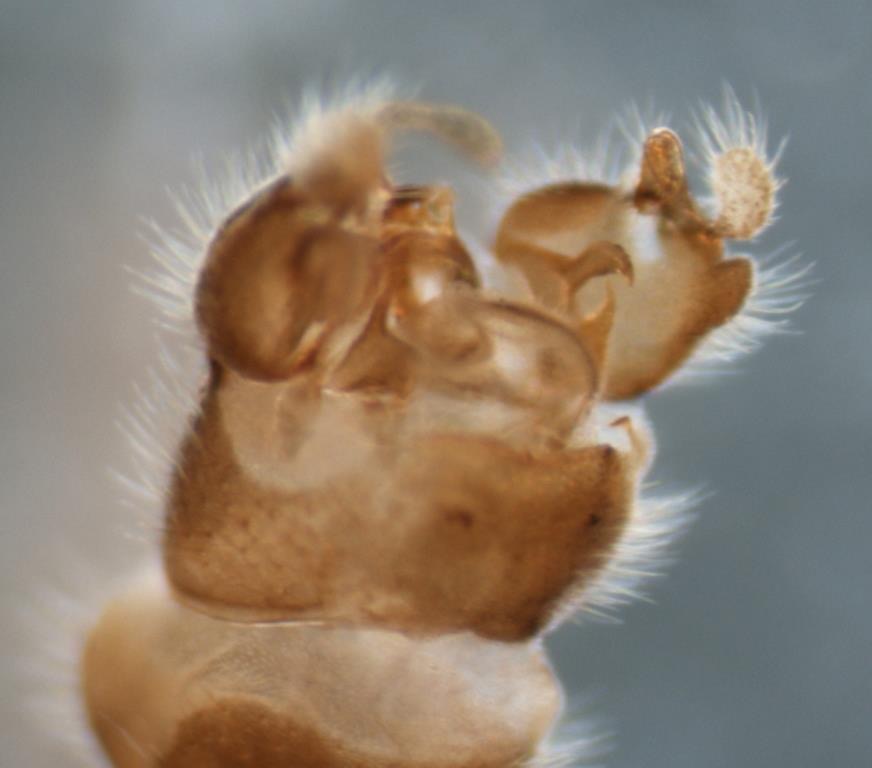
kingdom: Animalia
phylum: Arthropoda
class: Insecta
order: Diptera
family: Pediciidae
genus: Dicranota
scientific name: Dicranota bimaculata
